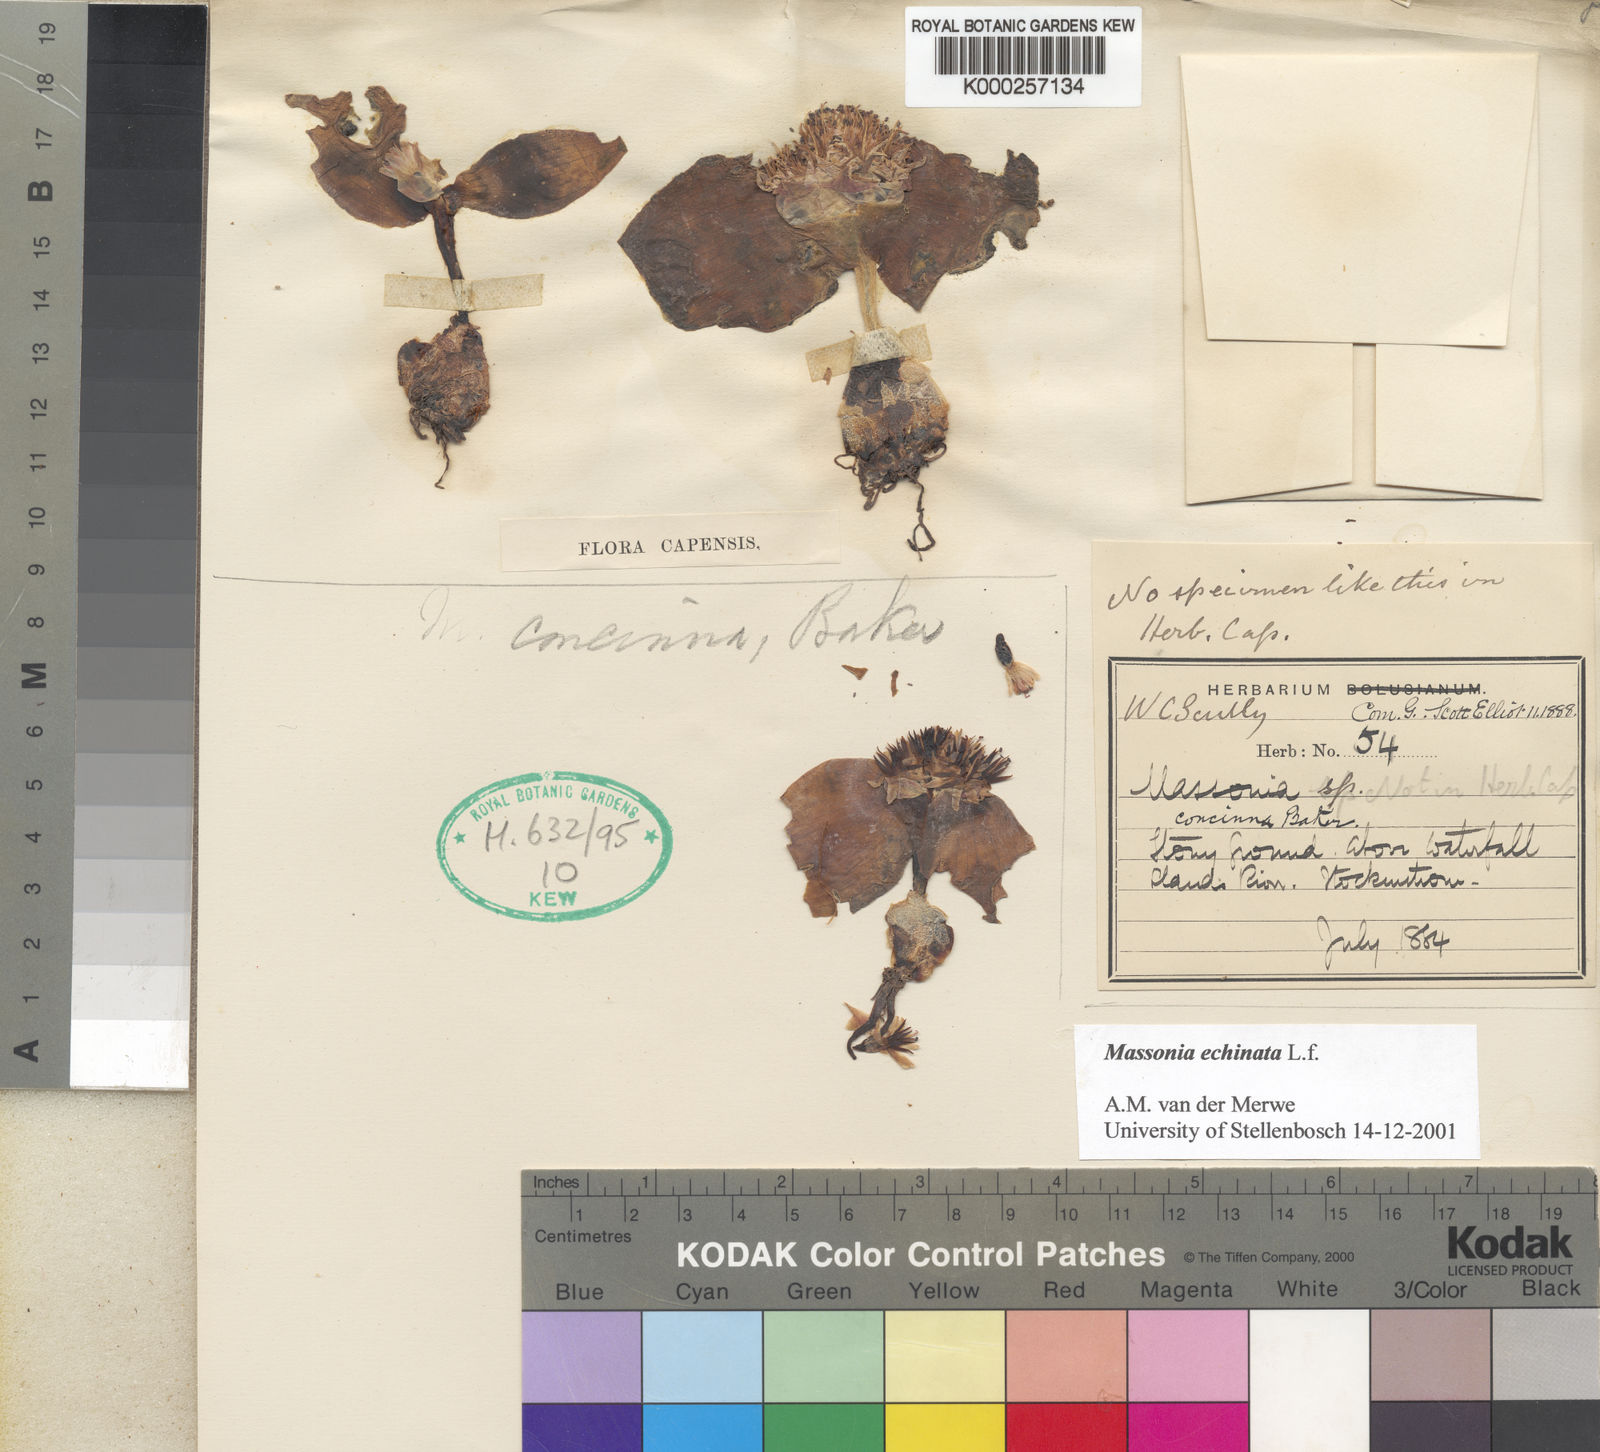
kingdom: Plantae
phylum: Tracheophyta
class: Liliopsida
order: Asparagales
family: Asparagaceae
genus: Massonia
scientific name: Massonia echinata
